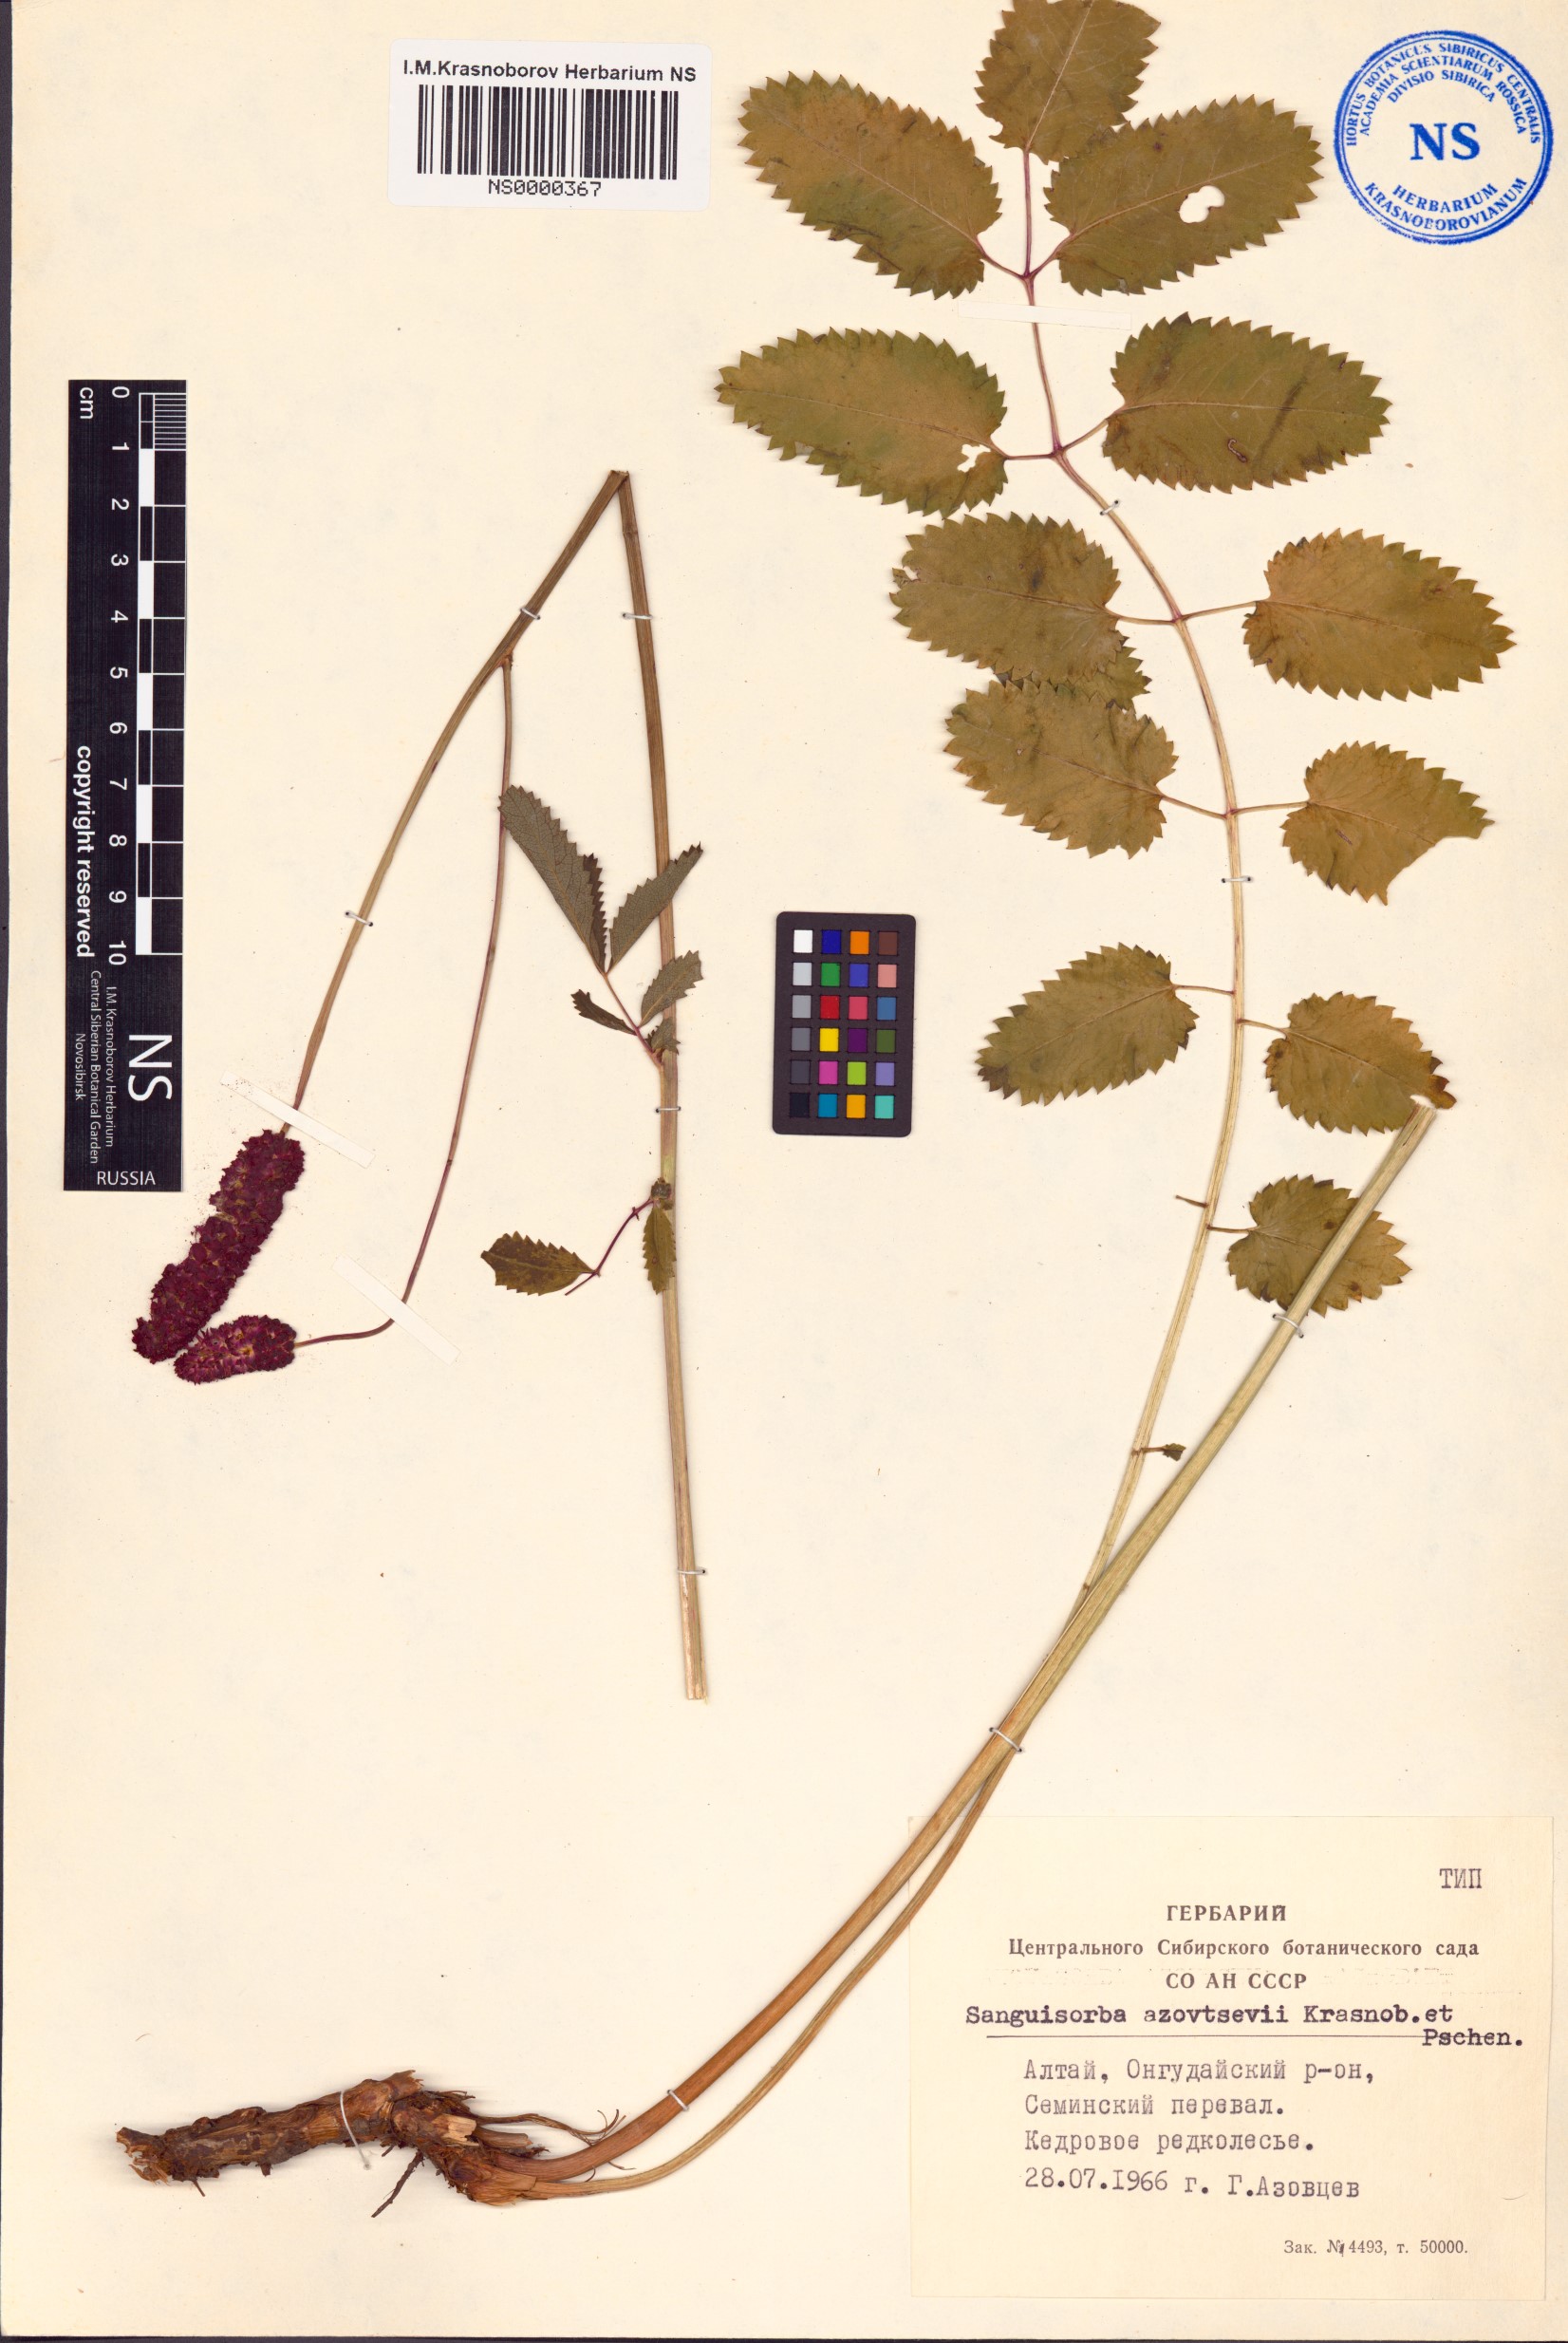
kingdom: Plantae
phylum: Tracheophyta
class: Magnoliopsida
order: Rosales
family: Rosaceae
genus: Sanguisorba
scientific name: Sanguisorba azovtsevii
